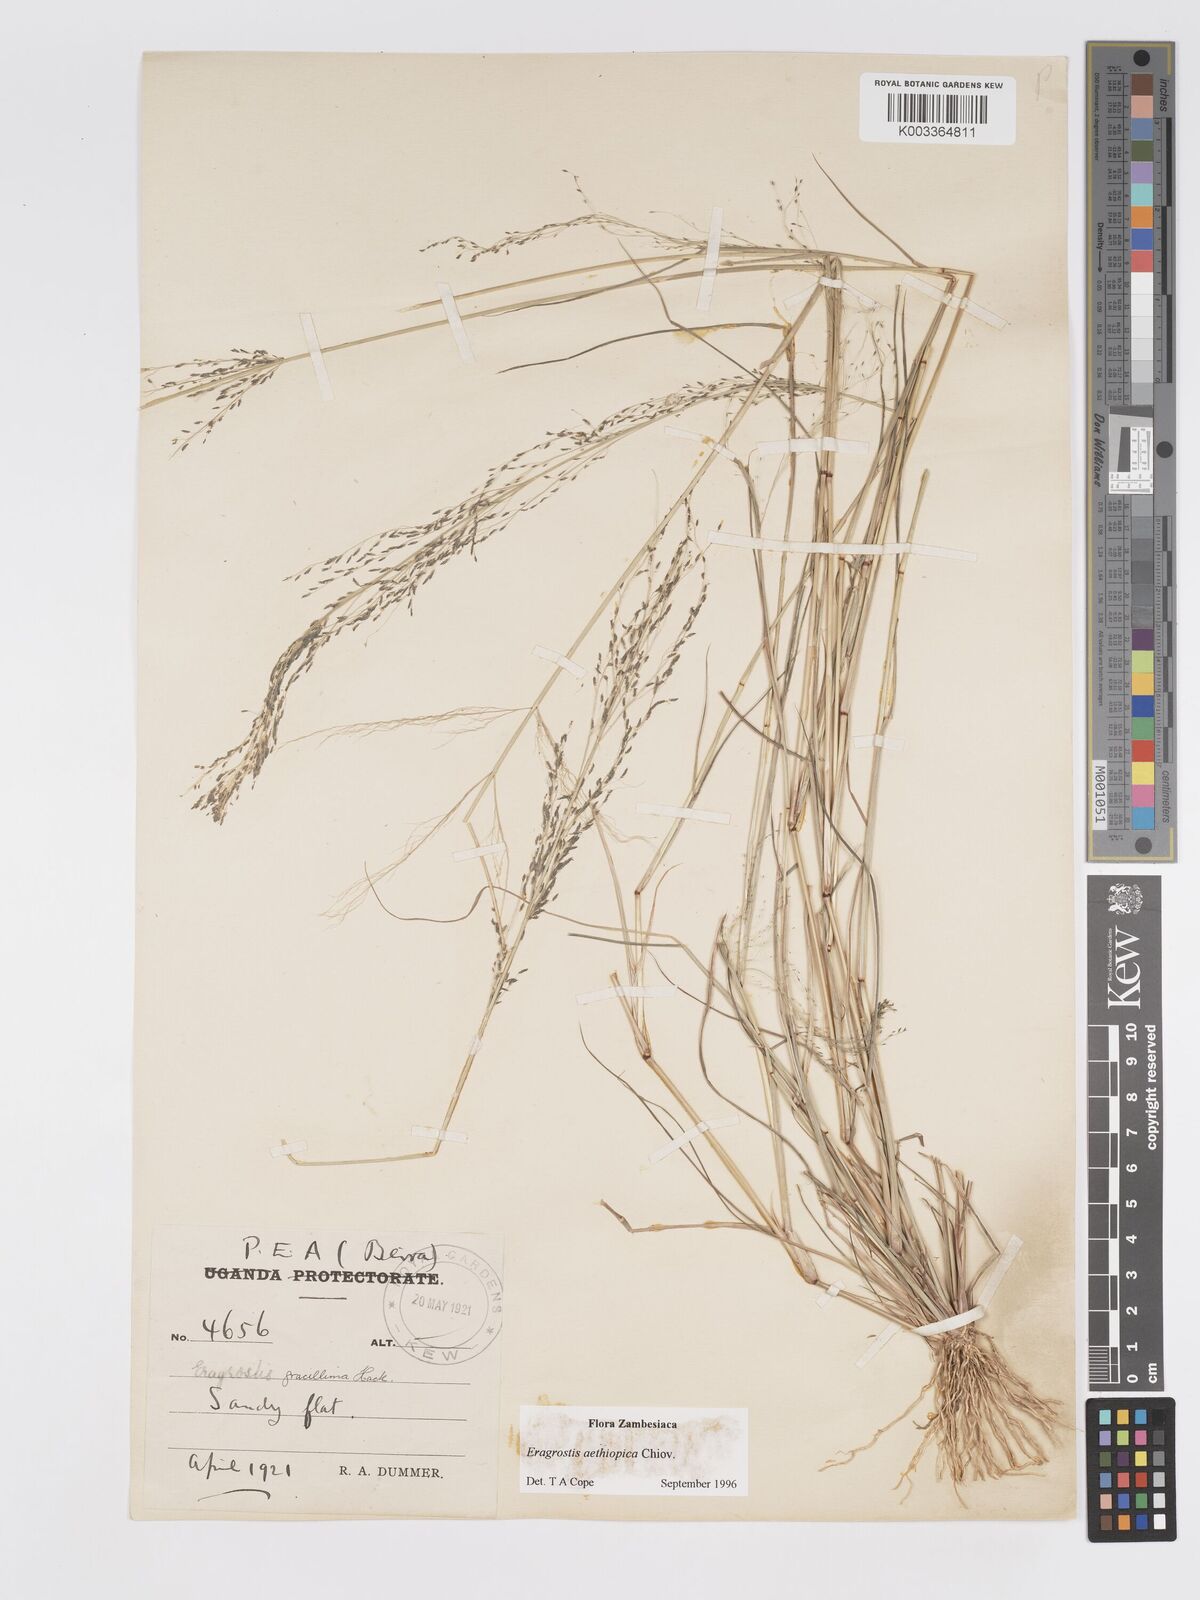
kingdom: Plantae
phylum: Tracheophyta
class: Liliopsida
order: Poales
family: Poaceae
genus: Eragrostis
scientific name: Eragrostis aethiopica
